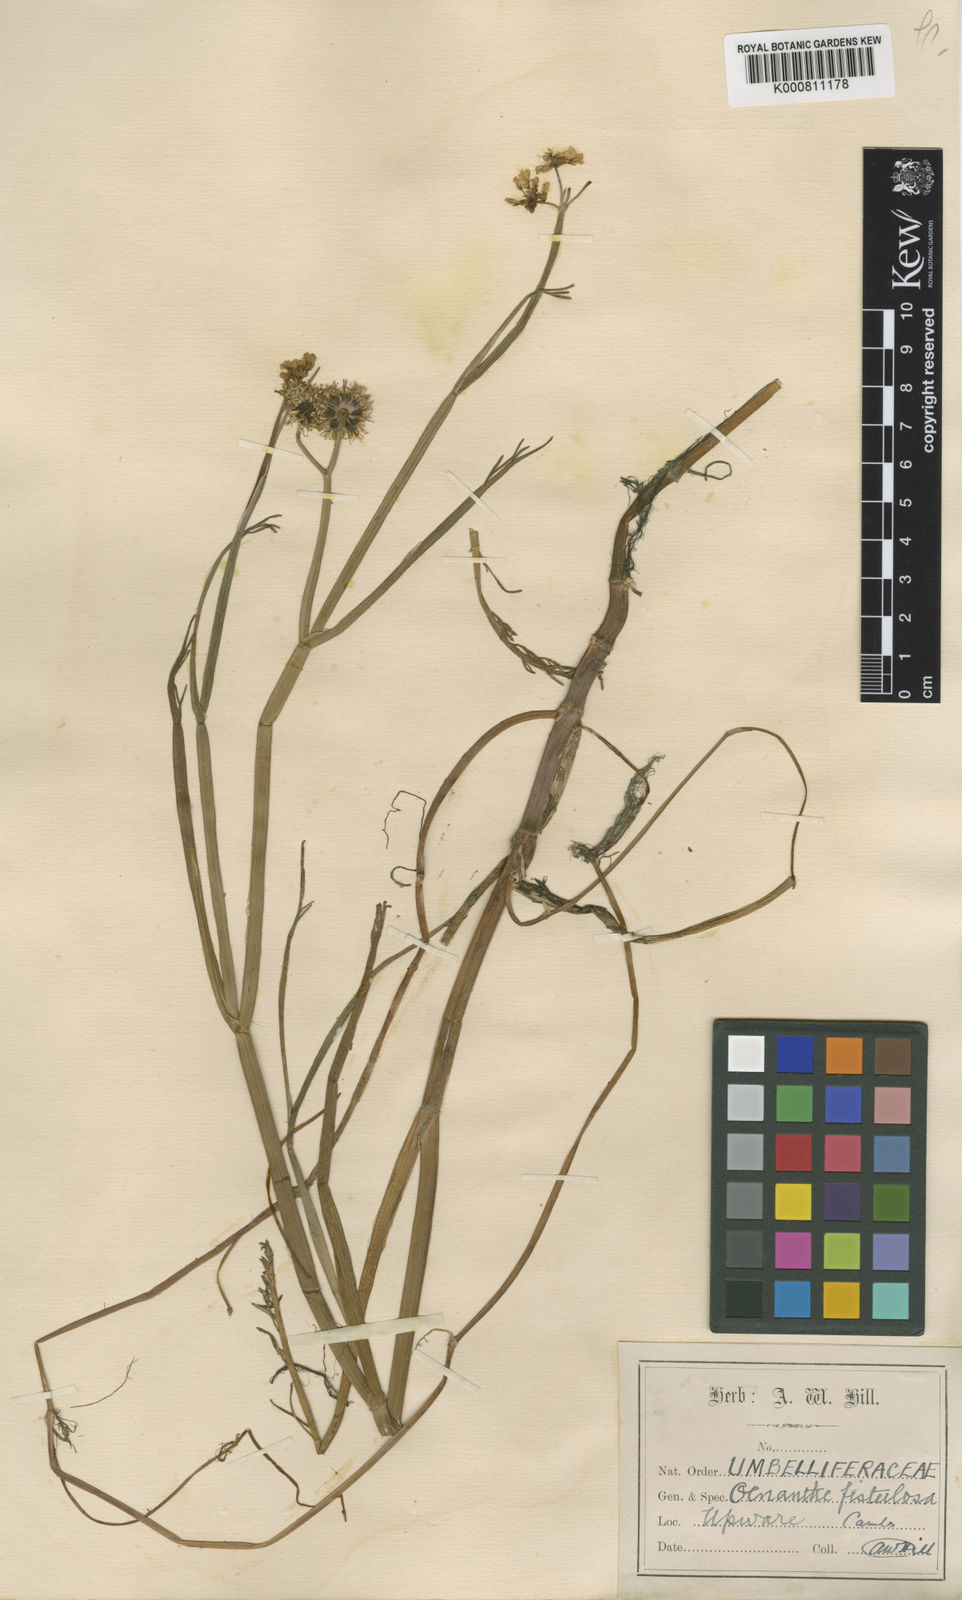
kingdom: Plantae
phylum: Tracheophyta
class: Magnoliopsida
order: Apiales
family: Apiaceae
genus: Oenanthe
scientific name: Oenanthe fistulosa
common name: Tubular water-dropwort
